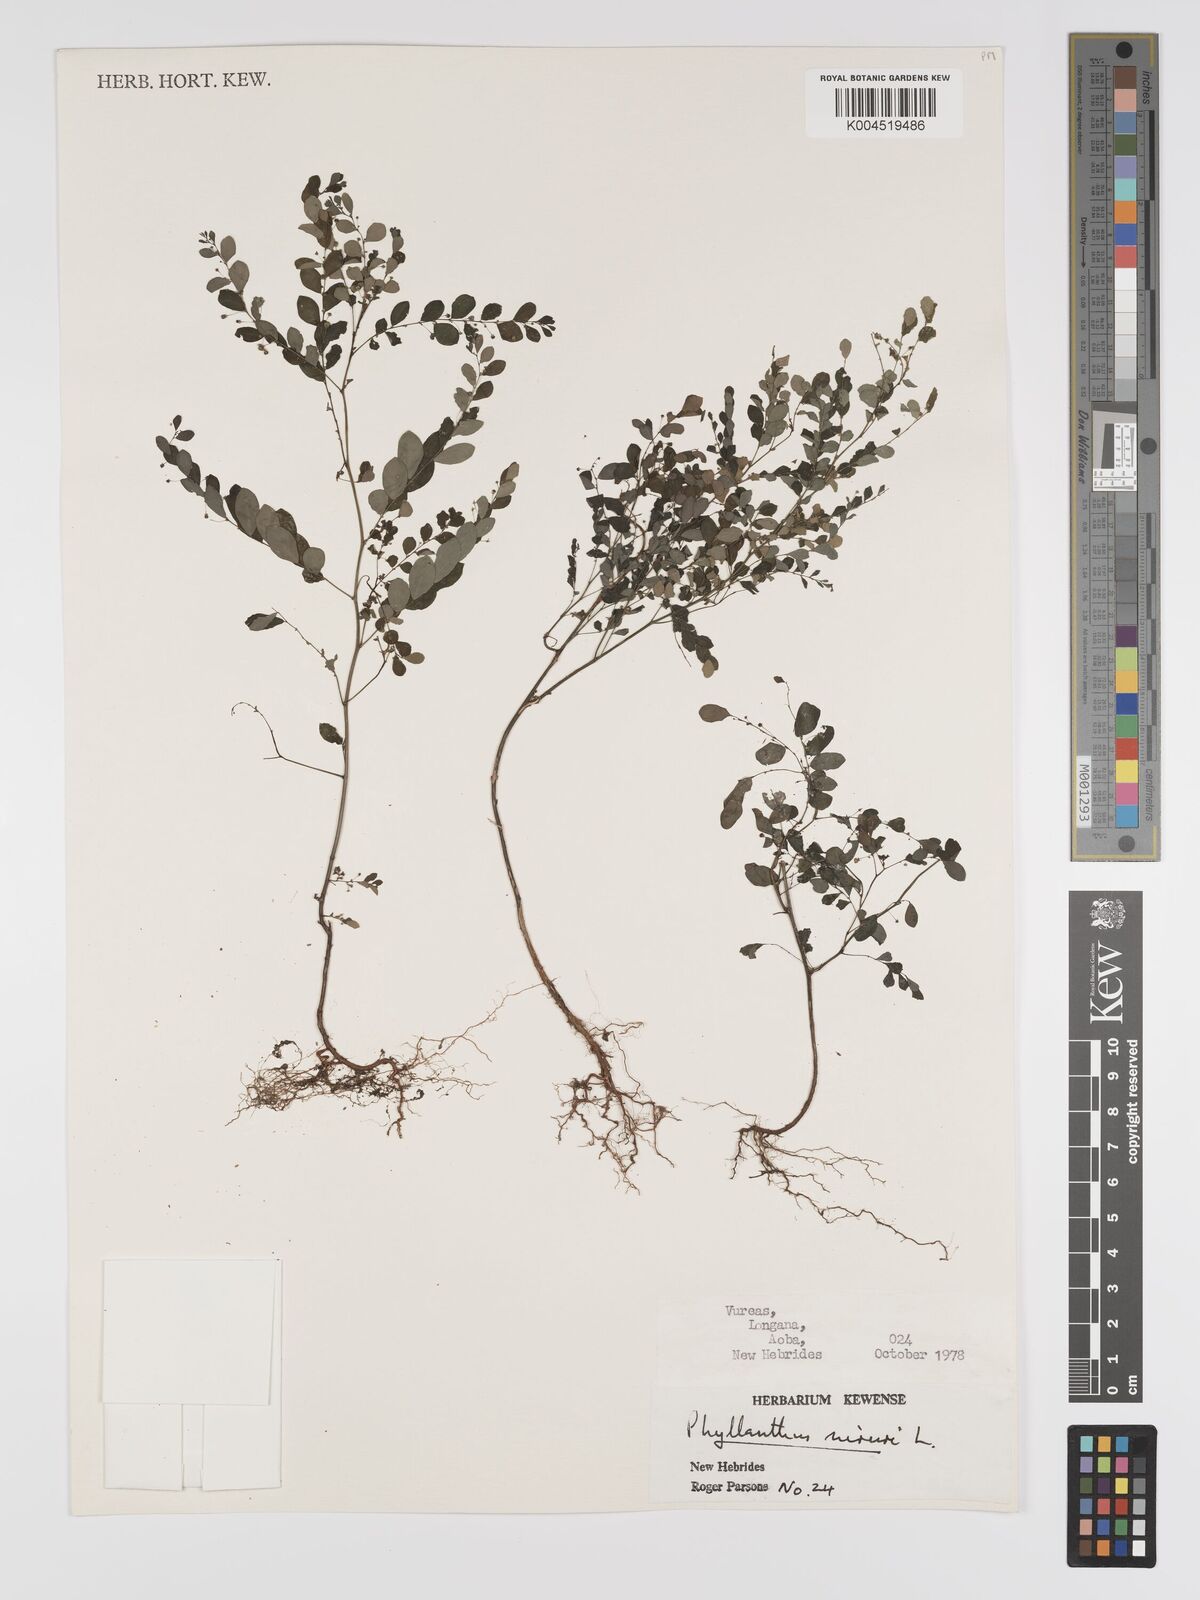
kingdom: Plantae
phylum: Tracheophyta
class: Magnoliopsida
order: Malpighiales
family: Phyllanthaceae
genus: Phyllanthus
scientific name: Phyllanthus niruri
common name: Niruri
